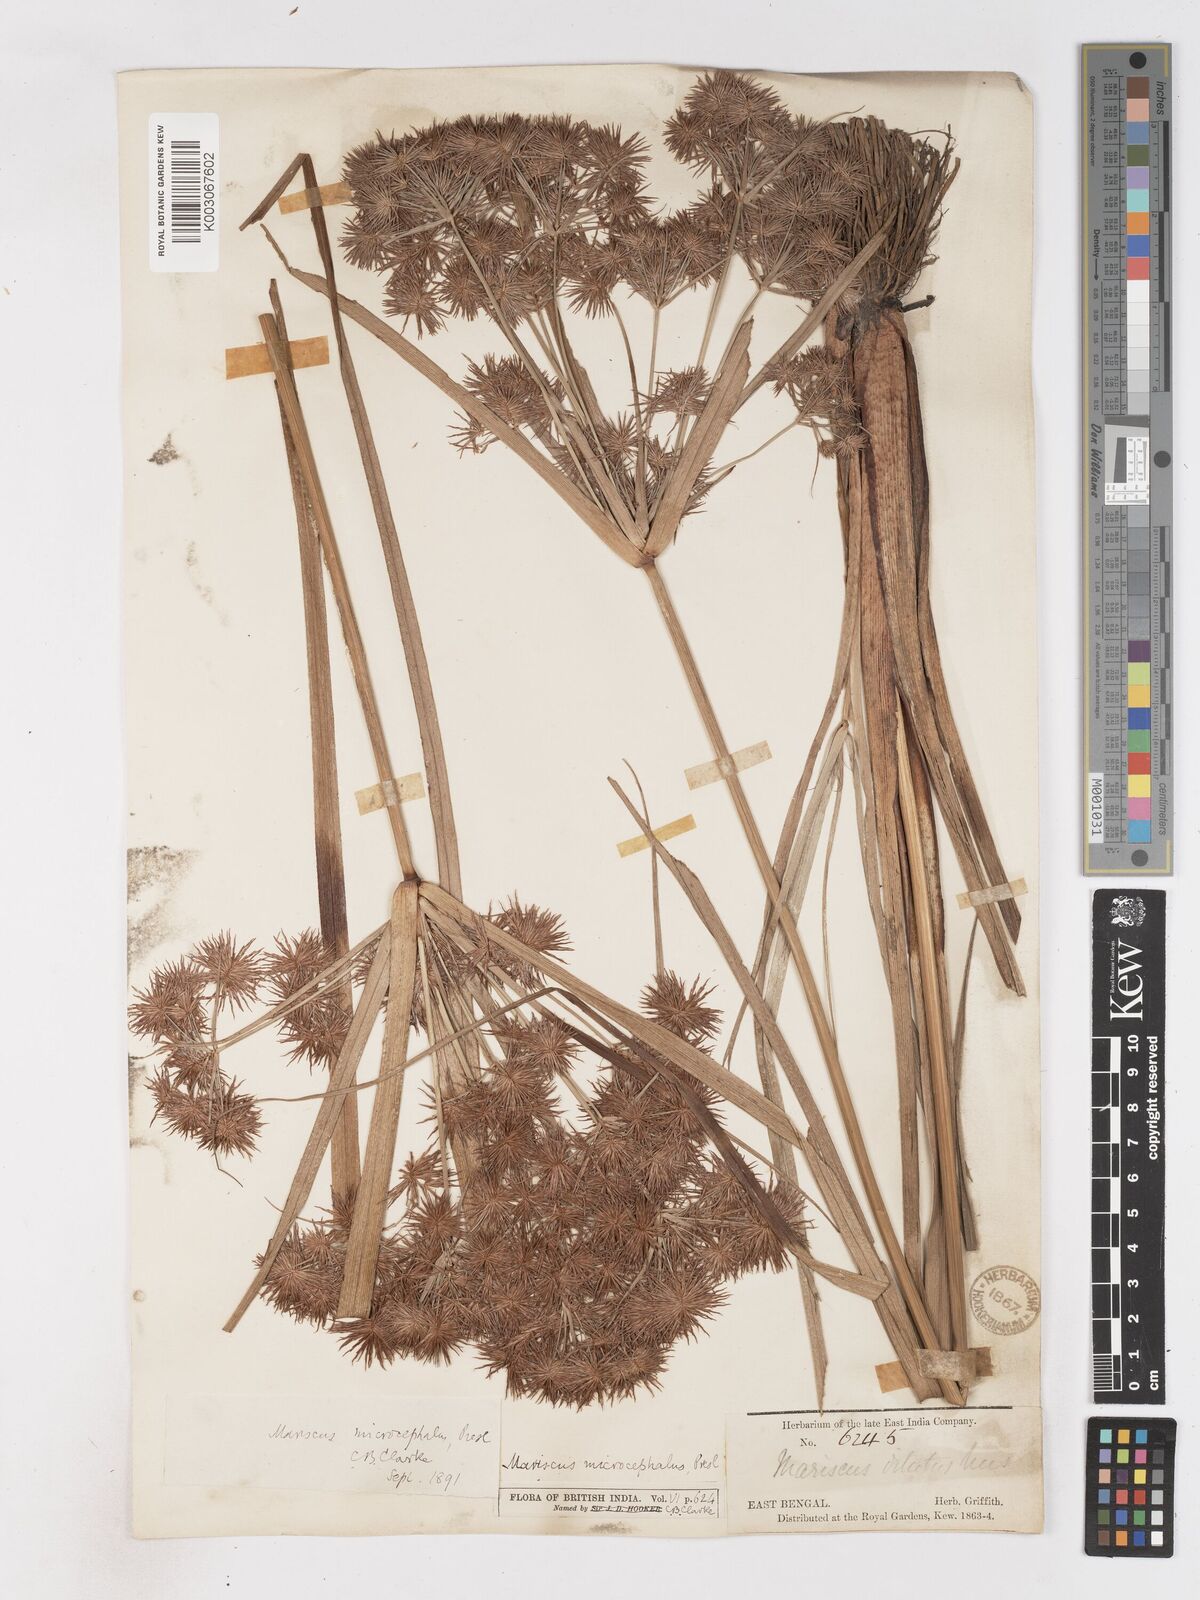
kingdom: Plantae
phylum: Tracheophyta
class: Liliopsida
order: Poales
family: Cyperaceae
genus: Cyperus
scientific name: Cyperus compactus
